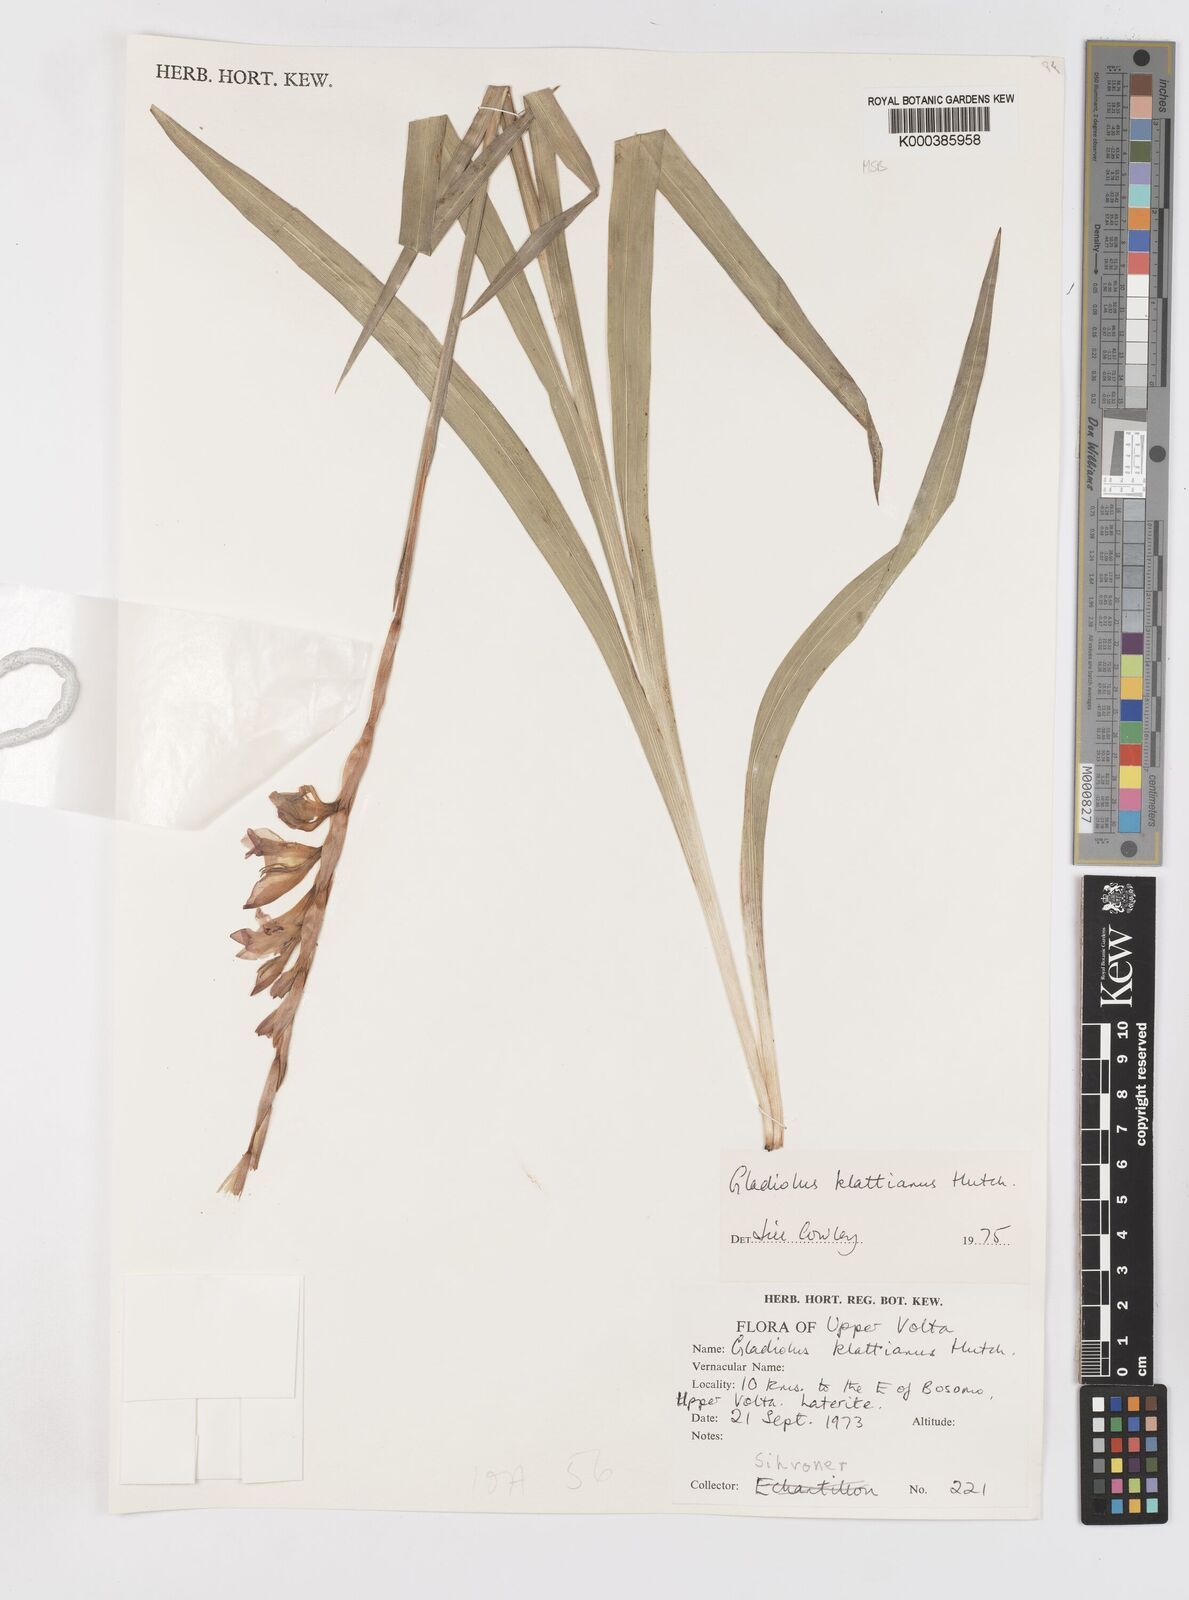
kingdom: Plantae
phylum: Tracheophyta
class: Liliopsida
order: Asparagales
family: Iridaceae
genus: Gladiolus
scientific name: Gladiolus gregarius
